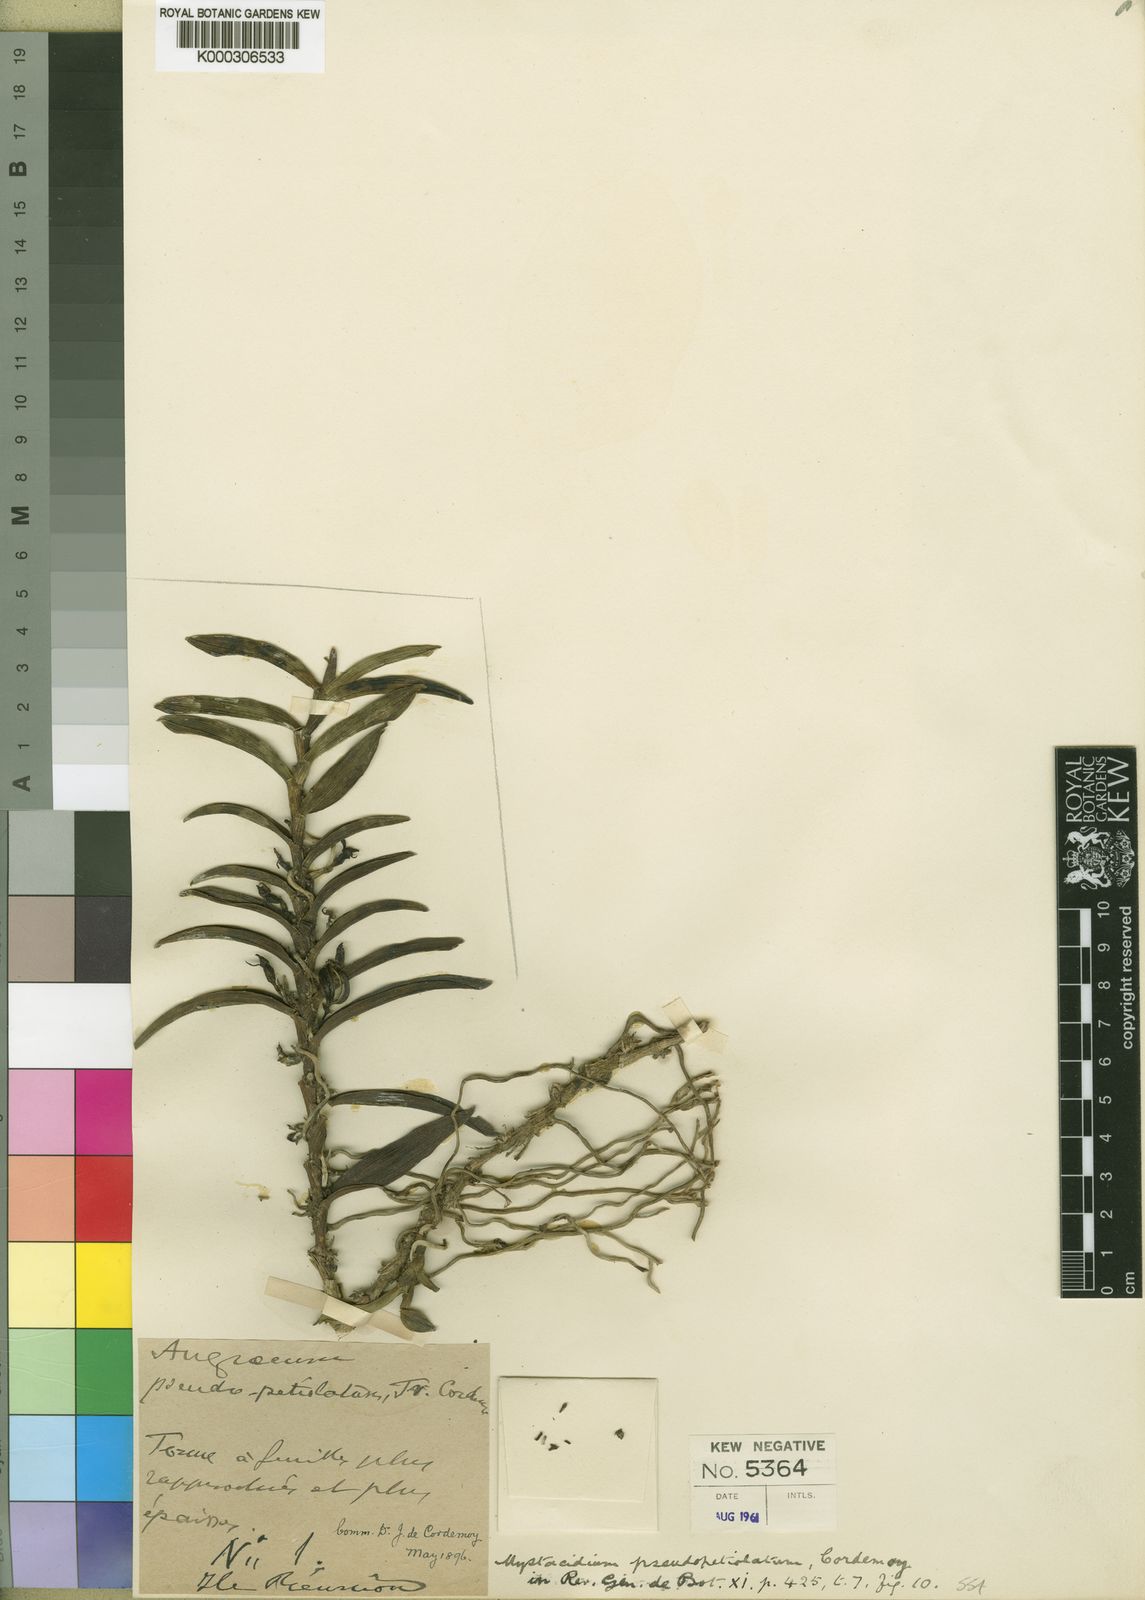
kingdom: Plantae
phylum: Tracheophyta
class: Liliopsida
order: Asparagales
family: Orchidaceae
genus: Angraecum
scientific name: Angraecum costatum
